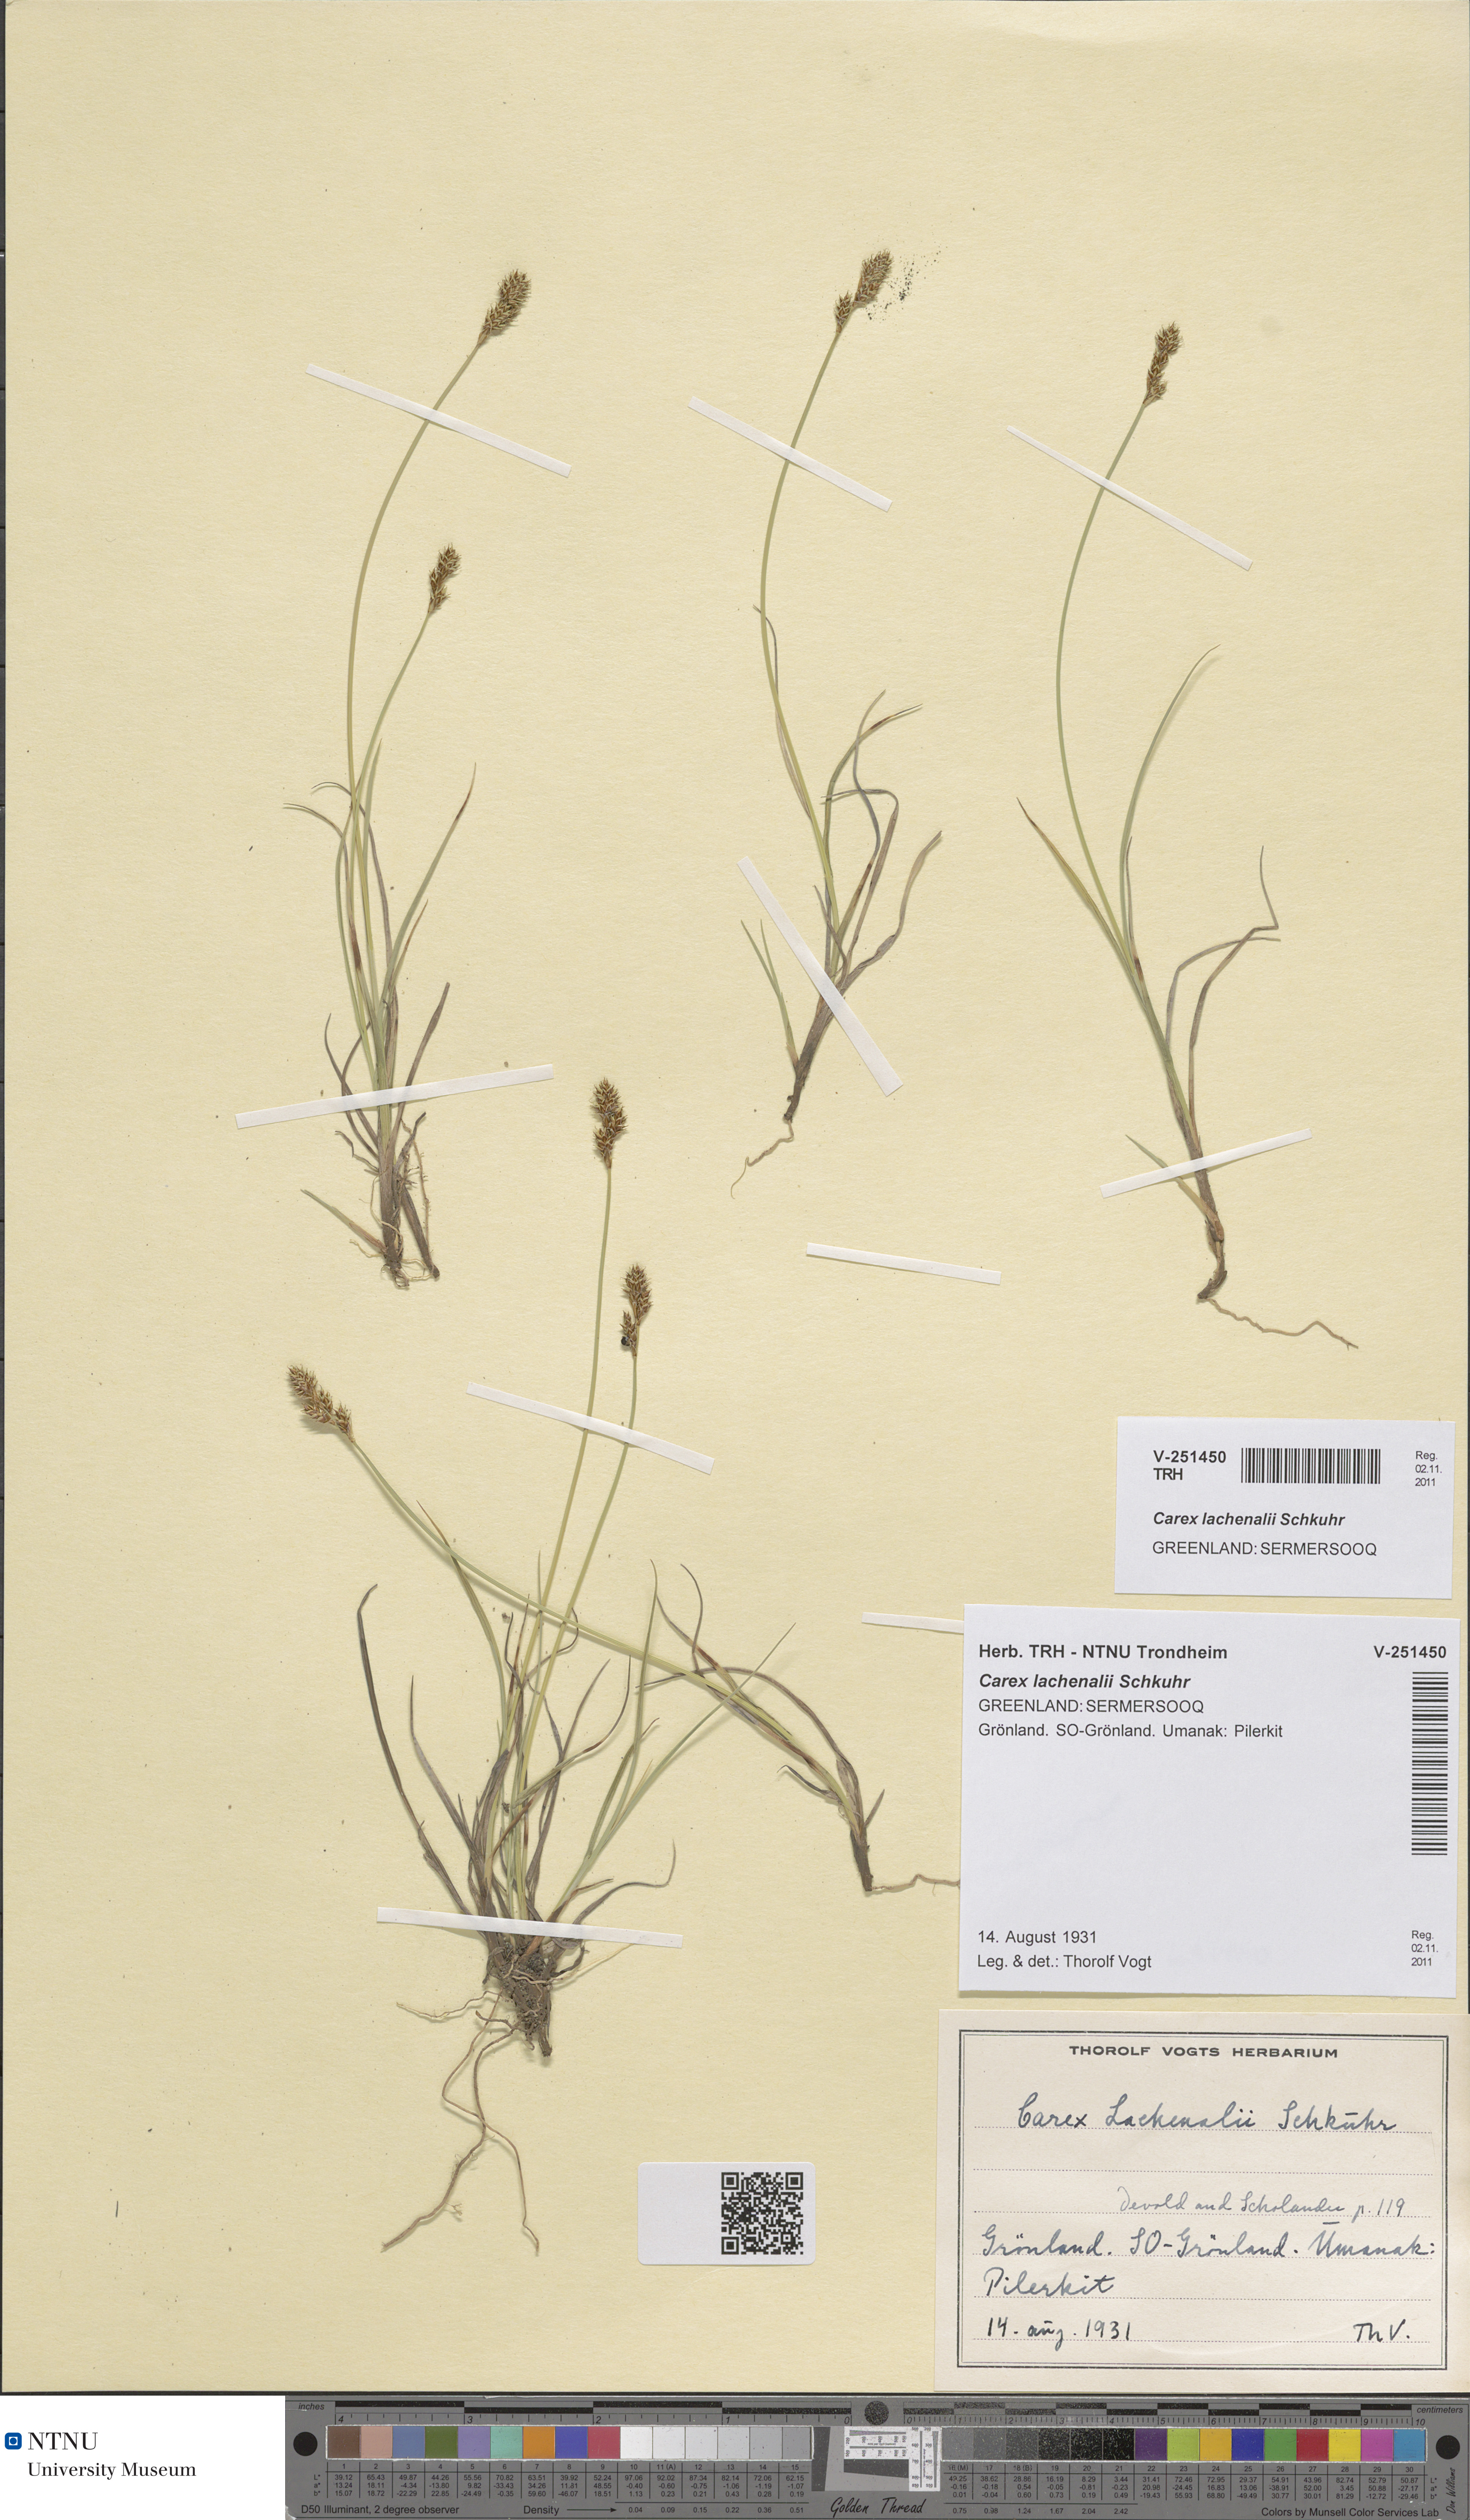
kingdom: Plantae
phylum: Tracheophyta
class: Liliopsida
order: Poales
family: Cyperaceae
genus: Carex
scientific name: Carex lachenalii
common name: Hare's-foot sedge
